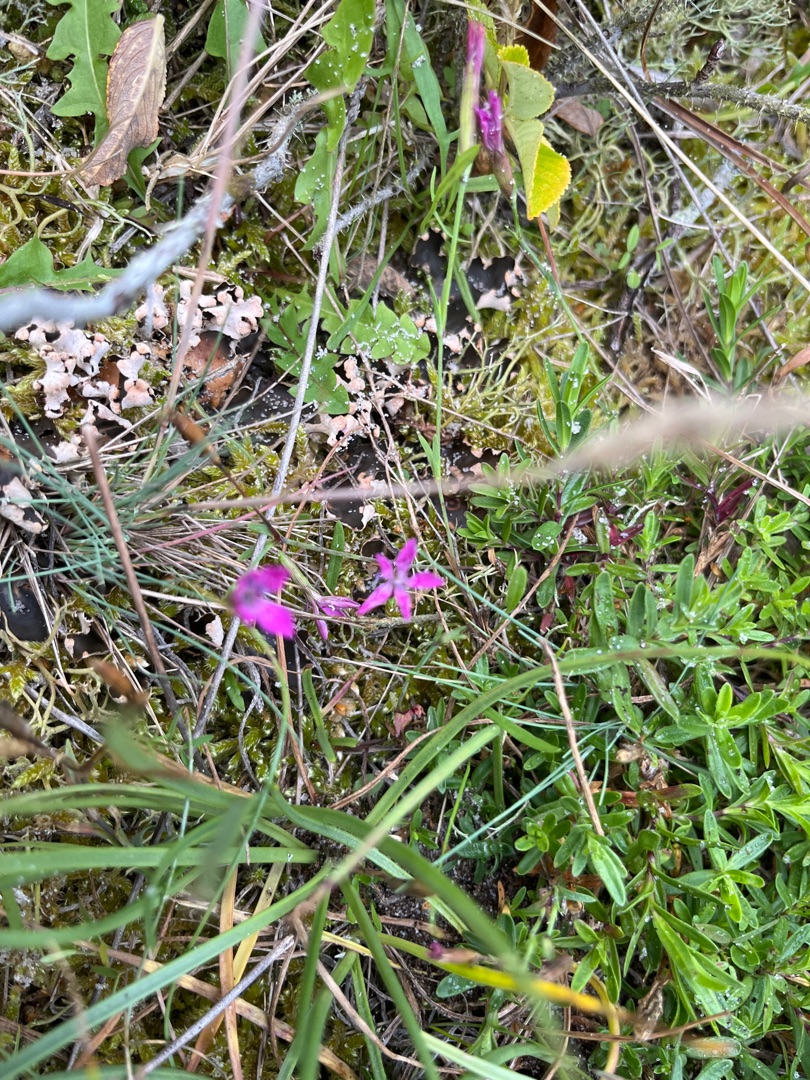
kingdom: Plantae
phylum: Tracheophyta
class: Magnoliopsida
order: Caryophyllales
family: Caryophyllaceae
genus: Dianthus
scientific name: Dianthus deltoides
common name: Bakke-nellike
